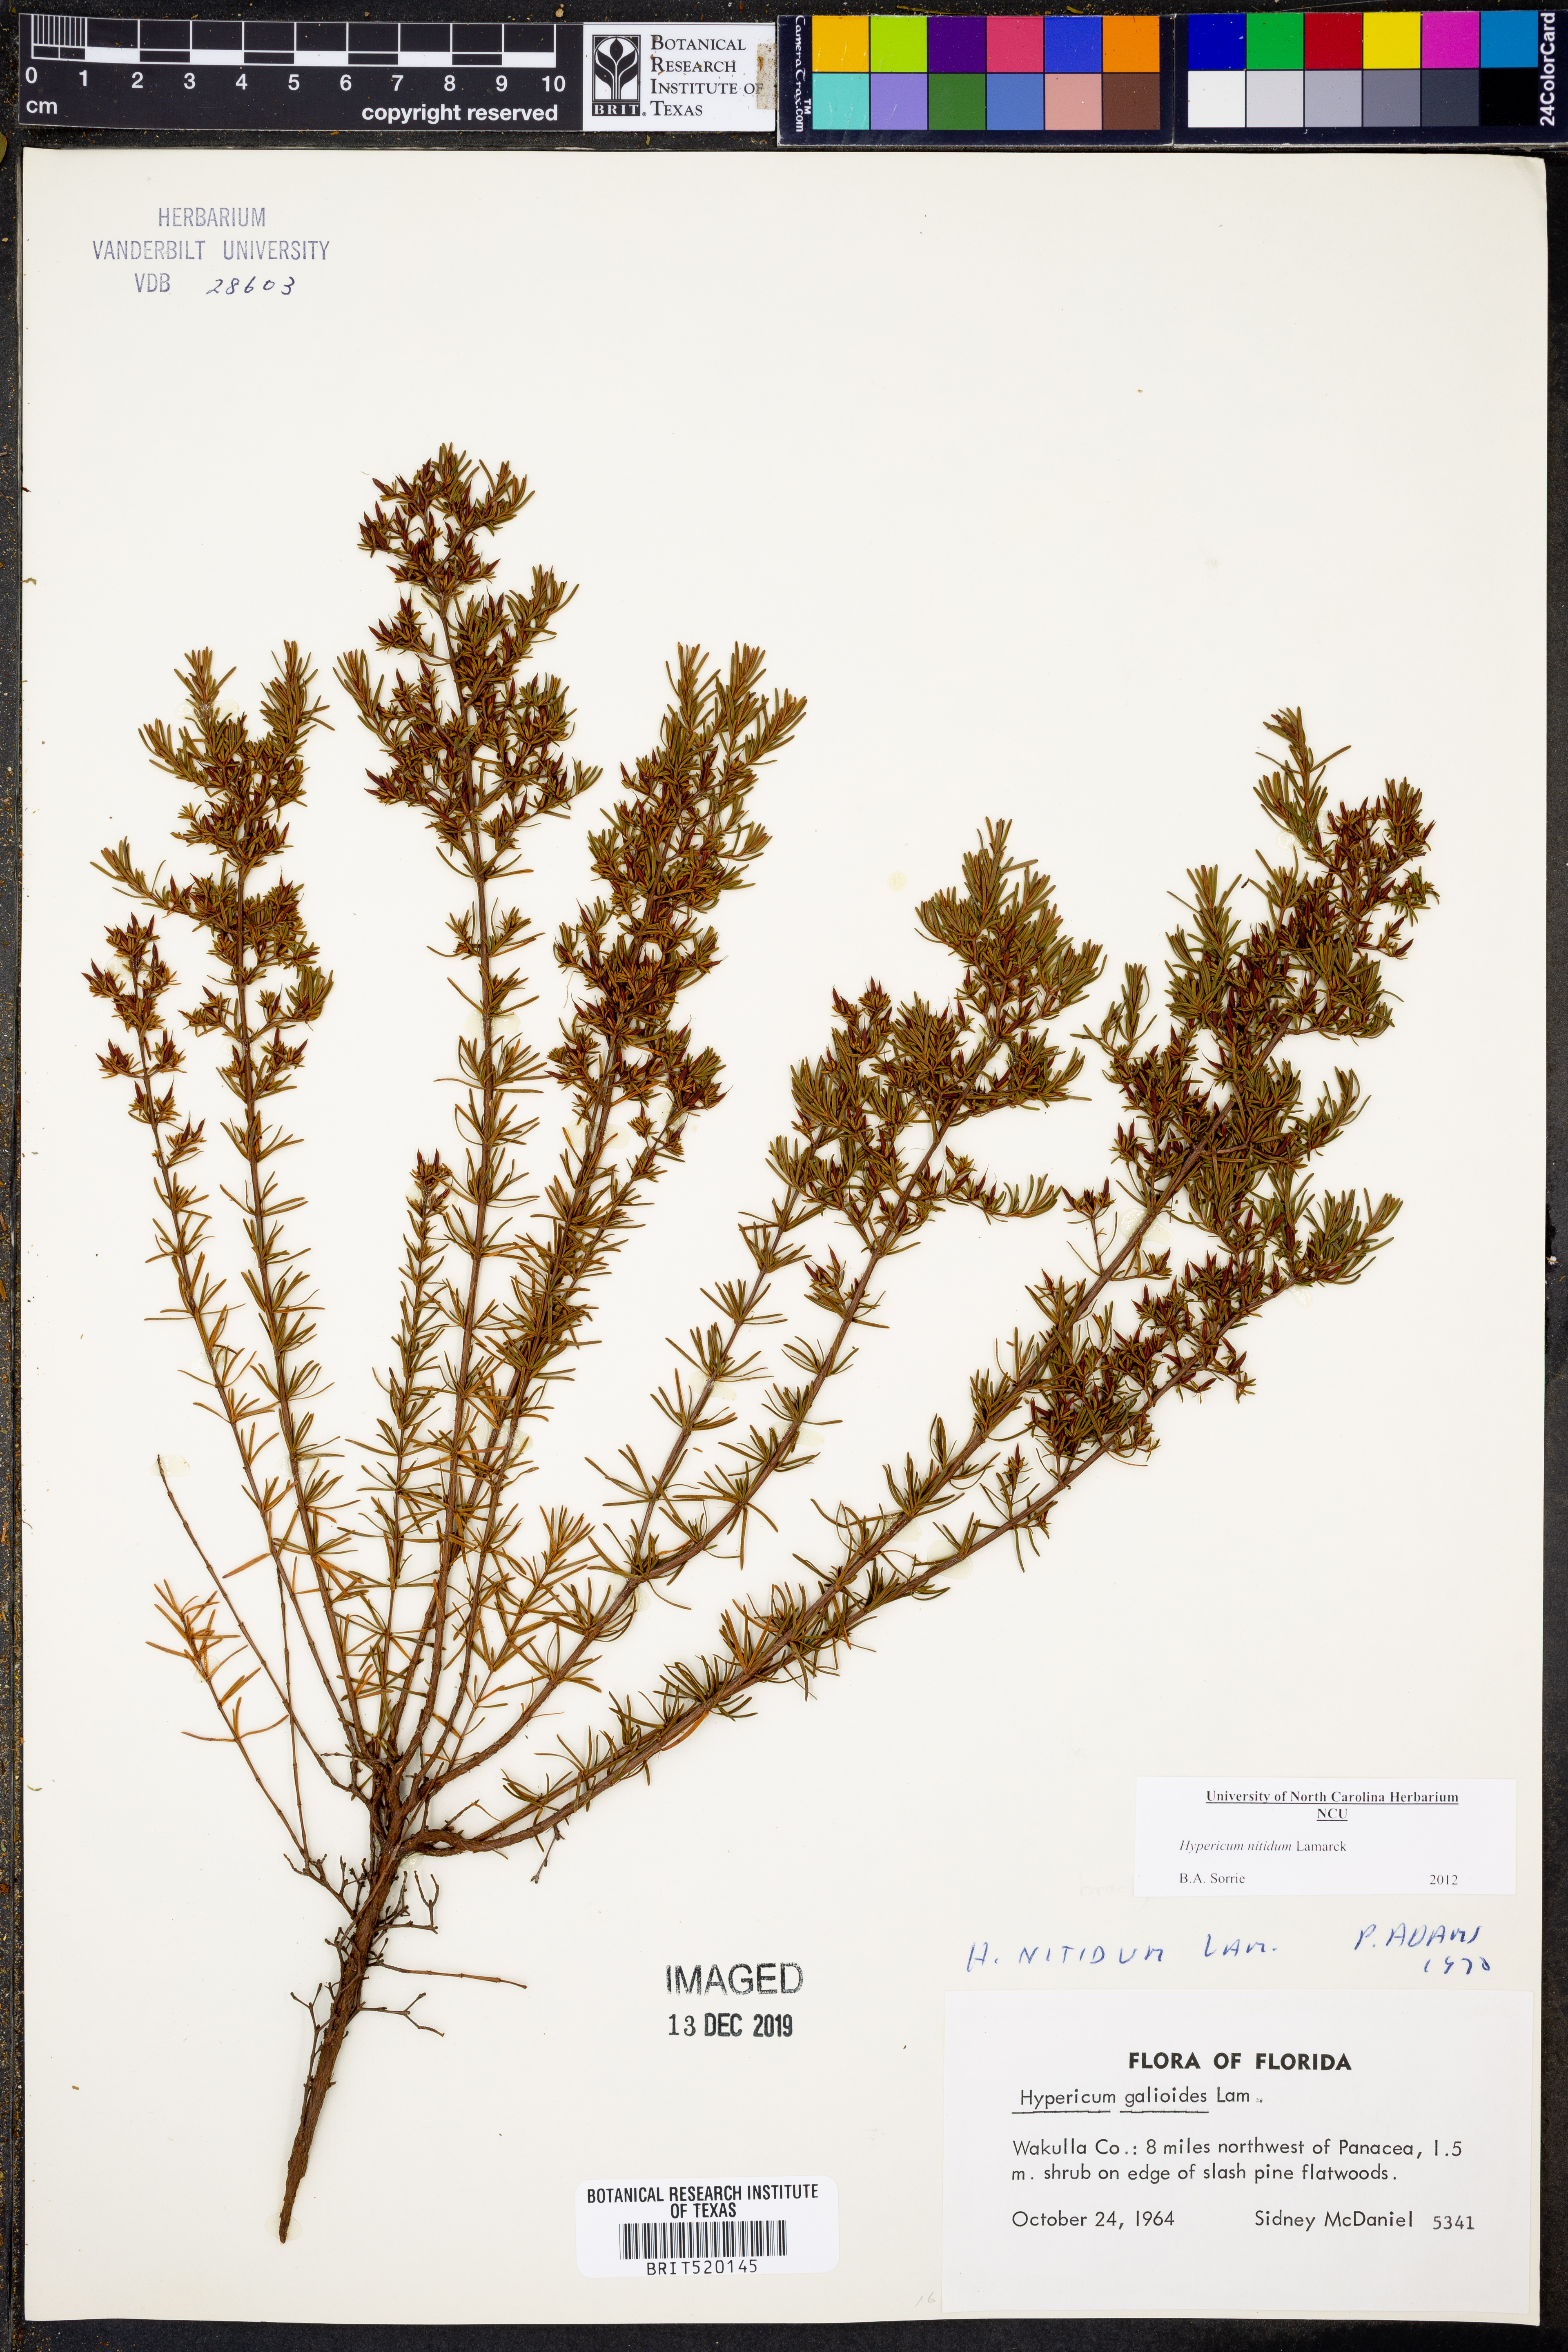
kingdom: Plantae
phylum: Tracheophyta
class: Magnoliopsida
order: Malpighiales
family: Hypericaceae
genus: Hypericum
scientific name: Hypericum nitidum
